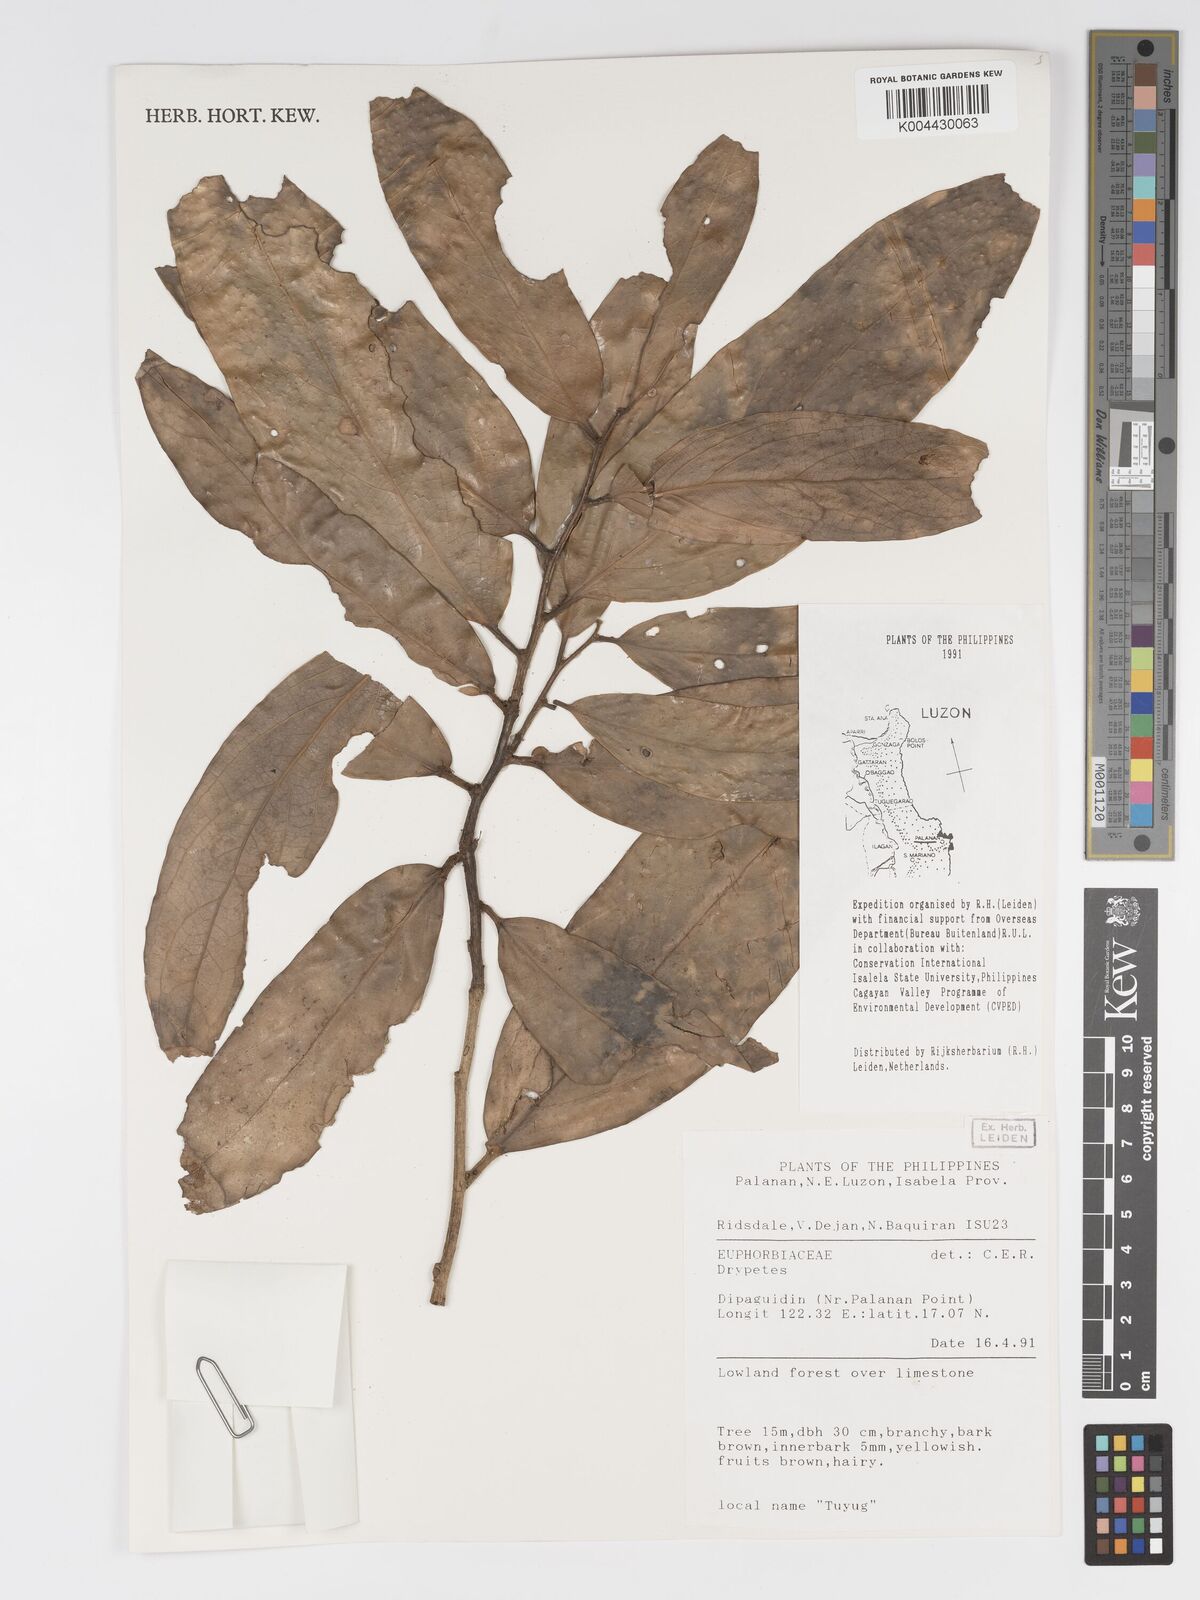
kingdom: Plantae
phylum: Tracheophyta
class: Magnoliopsida
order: Malpighiales
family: Putranjivaceae
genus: Drypetes
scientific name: Drypetes
